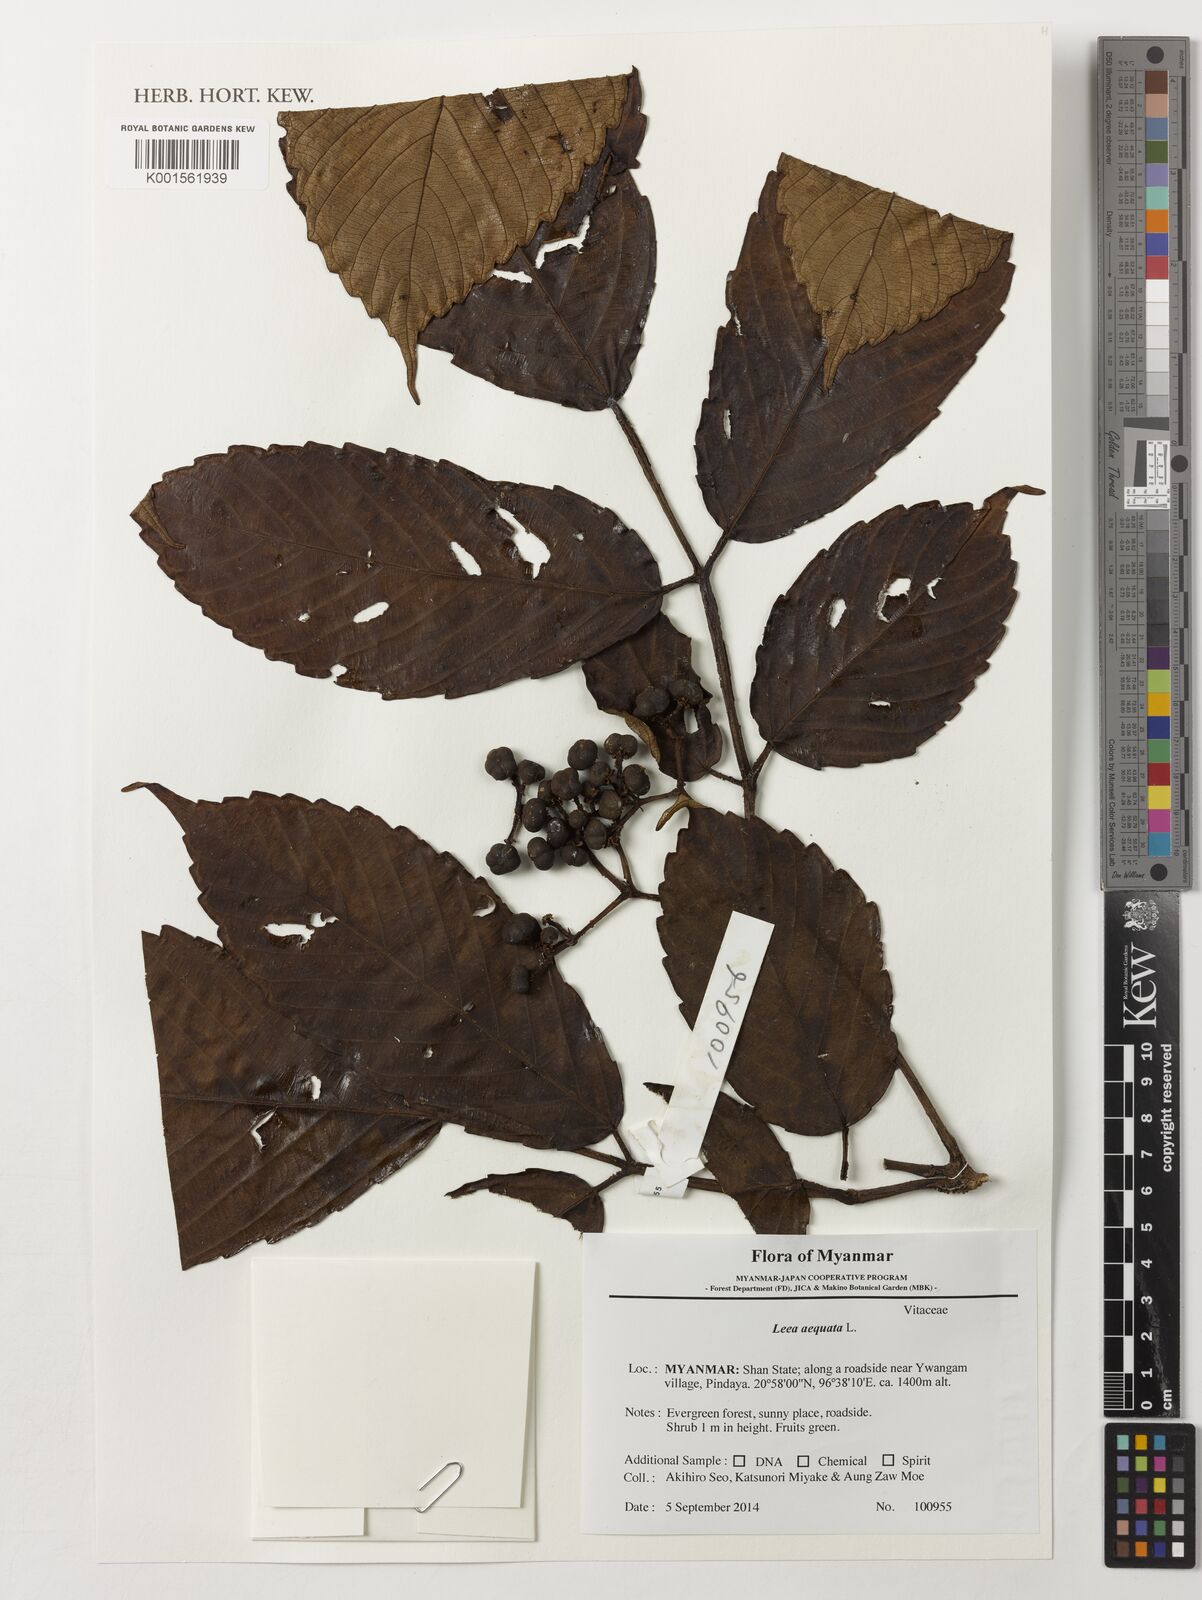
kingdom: Plantae
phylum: Tracheophyta
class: Magnoliopsida
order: Vitales
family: Vitaceae
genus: Leea
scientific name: Leea aequata
